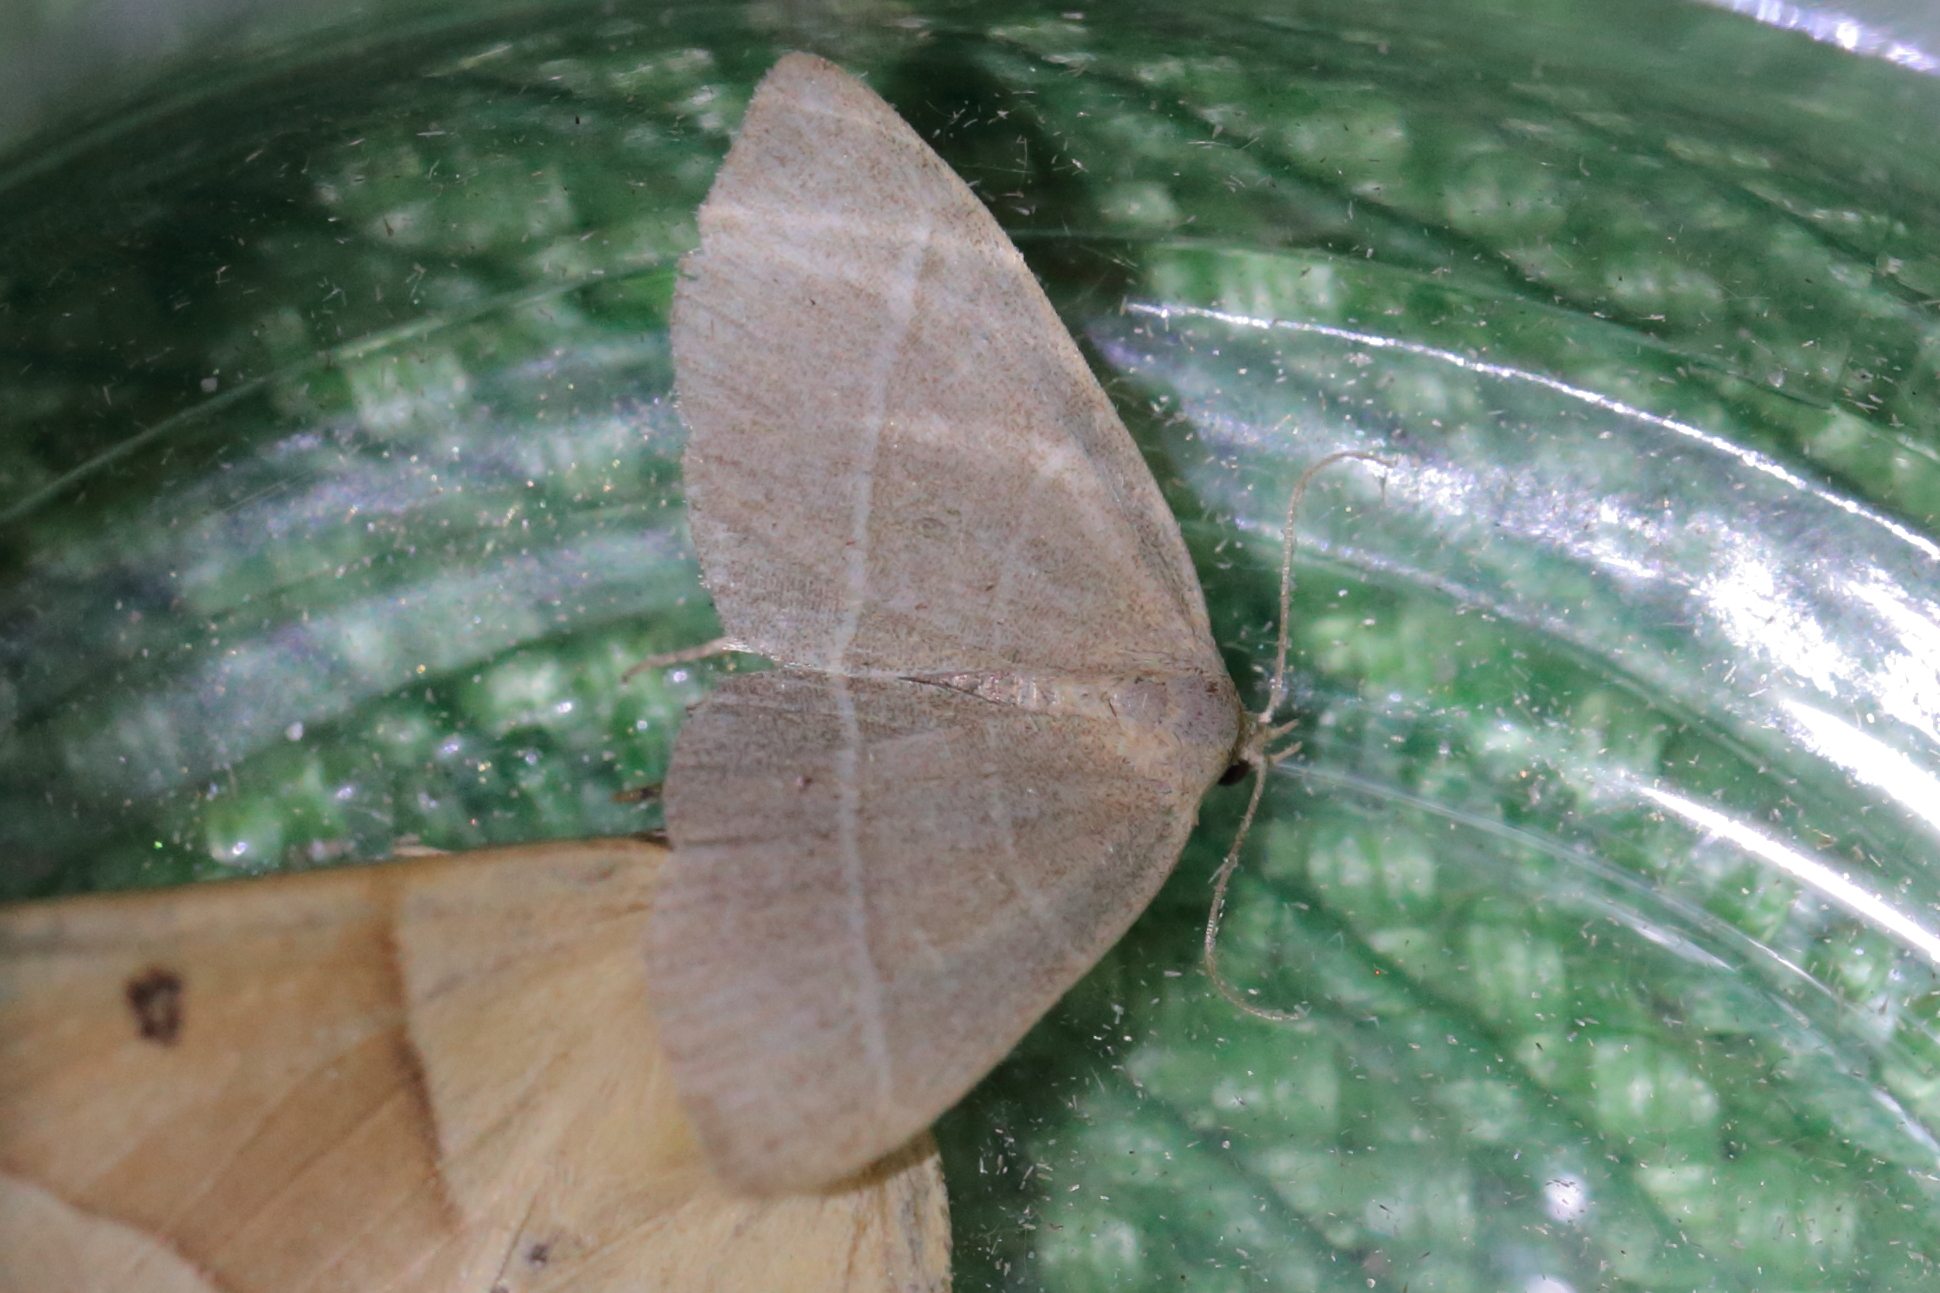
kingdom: Animalia
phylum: Arthropoda
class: Insecta
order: Lepidoptera
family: Erebidae
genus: Trisateles
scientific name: Trisateles emortualis
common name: Olive crescent
